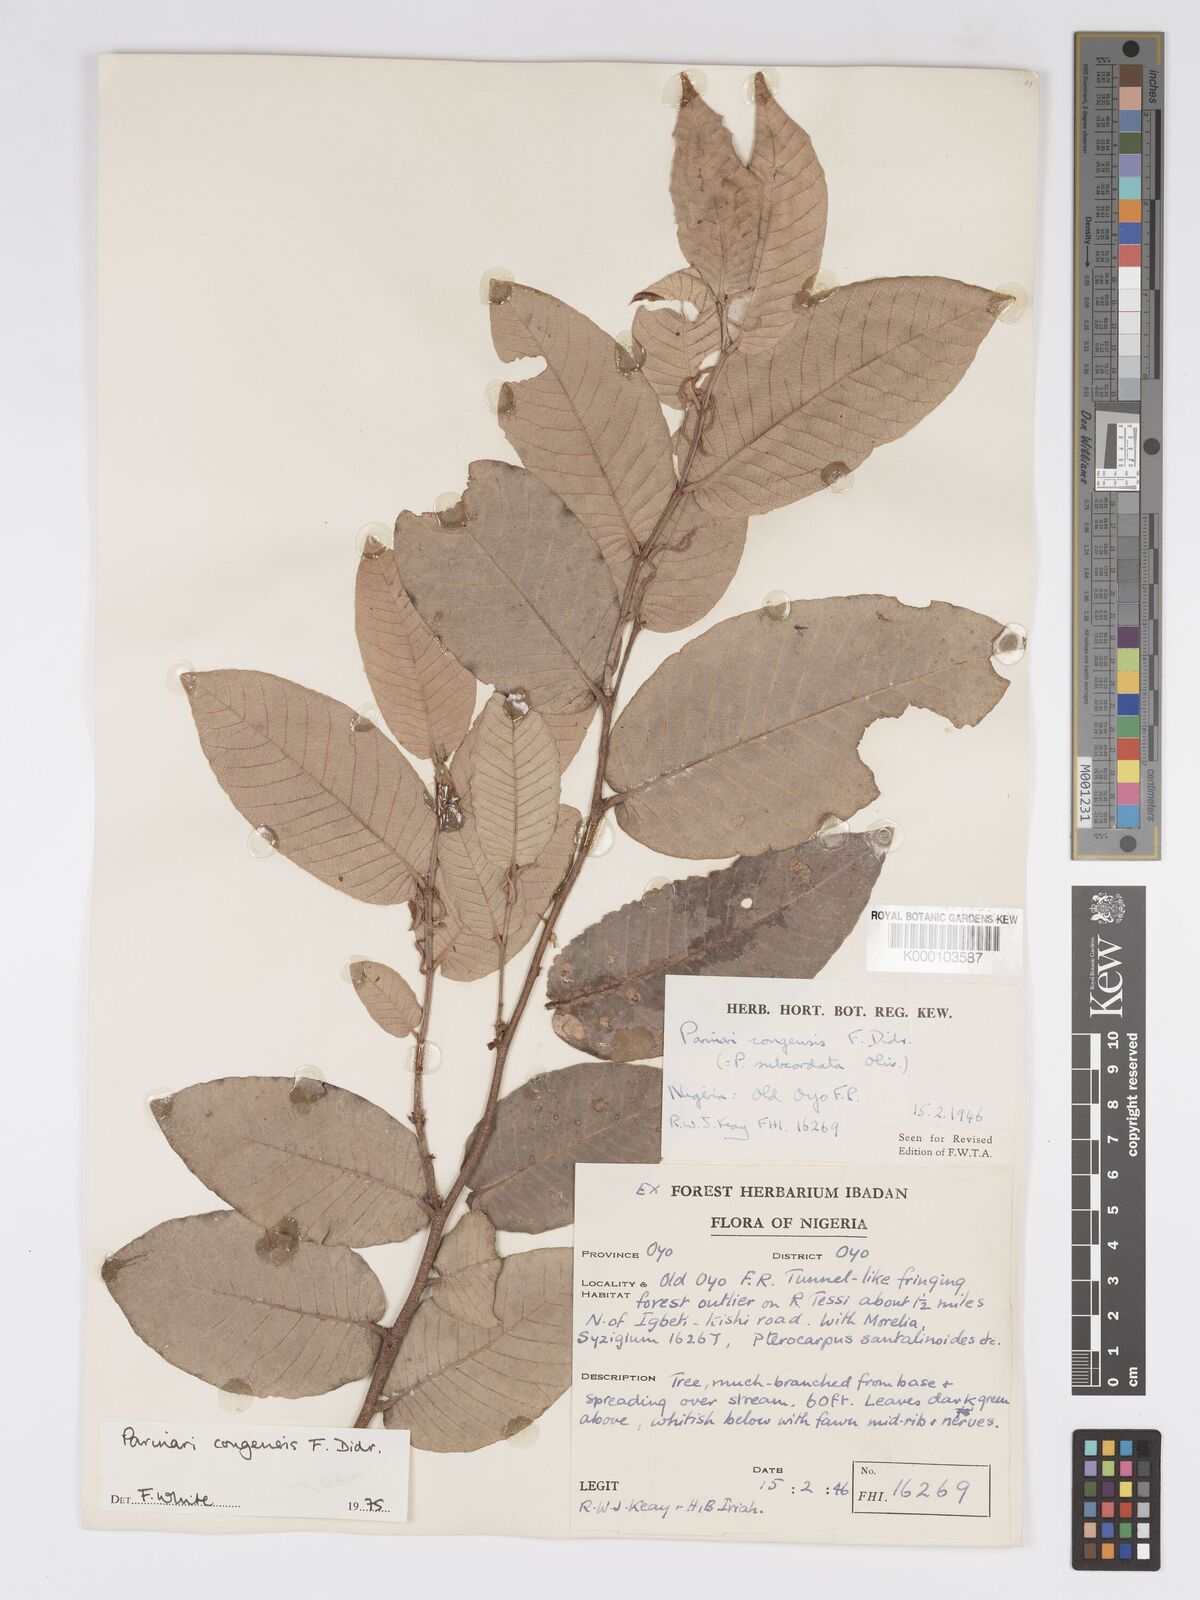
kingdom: Plantae
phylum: Tracheophyta
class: Magnoliopsida
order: Malpighiales
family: Chrysobalanaceae
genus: Parinari
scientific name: Parinari congensis
